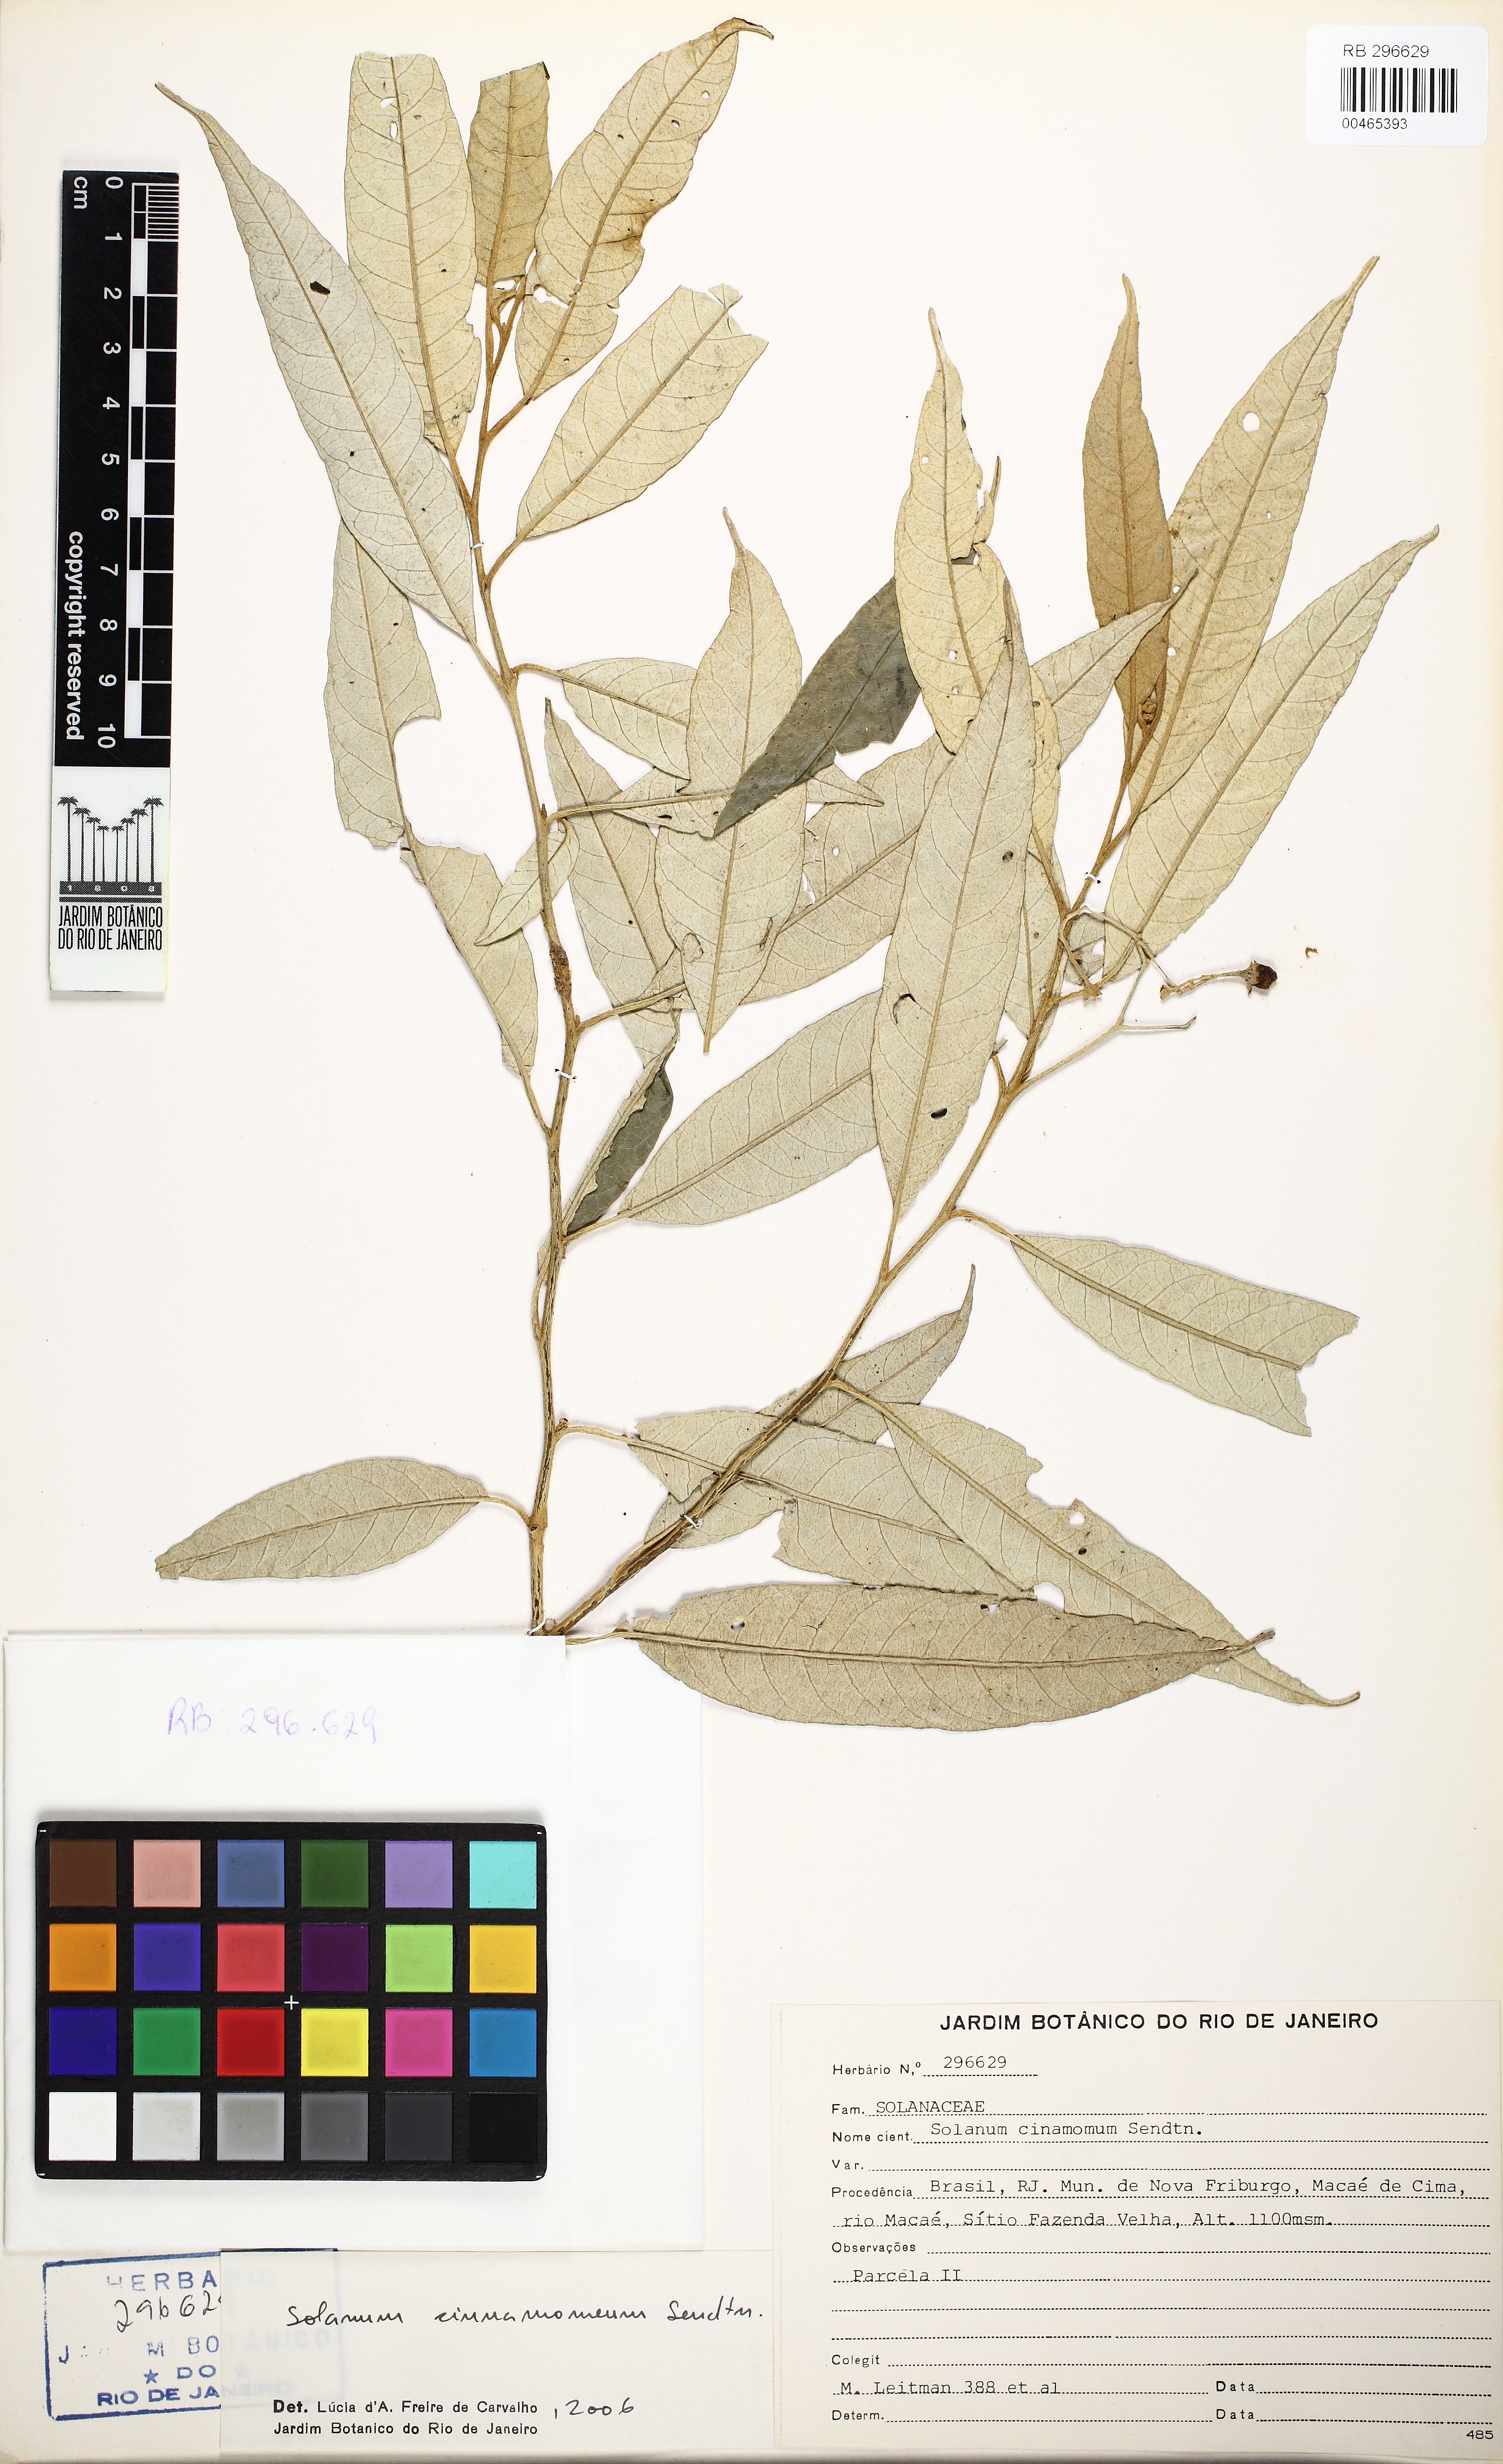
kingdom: Plantae
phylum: Tracheophyta
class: Magnoliopsida
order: Solanales
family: Solanaceae
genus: Solanum
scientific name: Solanum cinnamomeum
